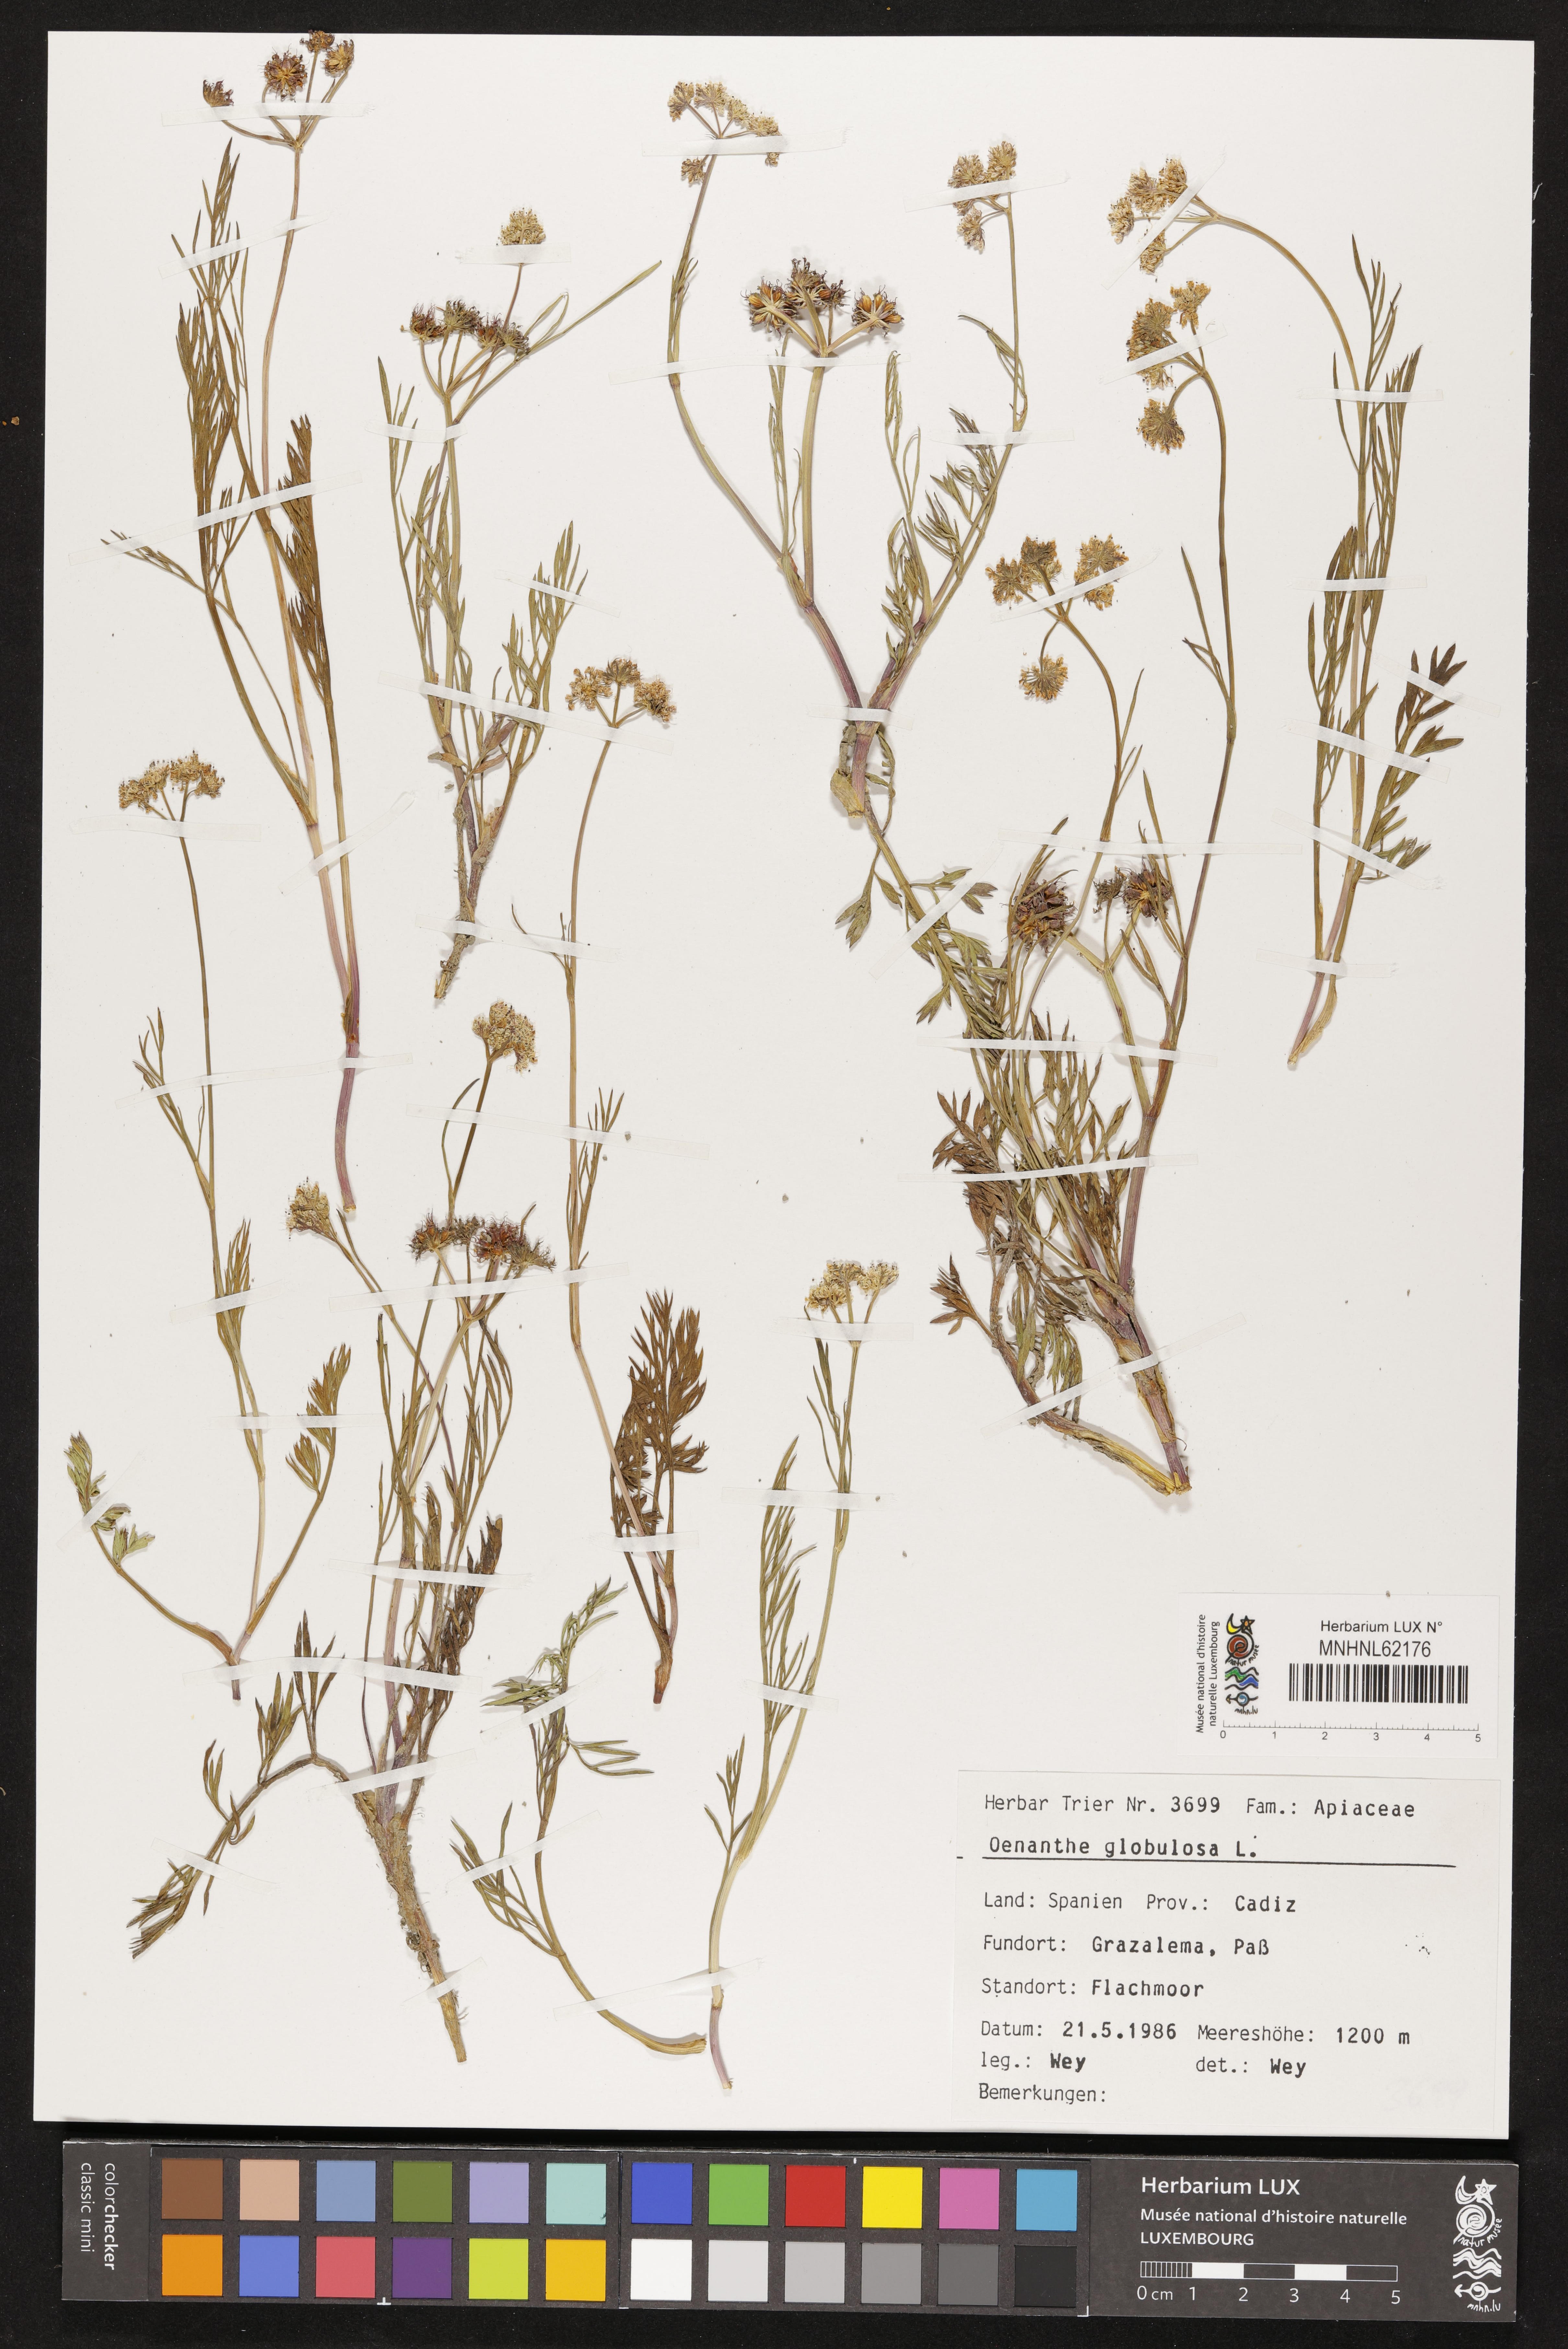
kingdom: Plantae
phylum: Tracheophyta
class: Magnoliopsida
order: Apiales
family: Apiaceae
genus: Oenanthe
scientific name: Oenanthe globulosa
